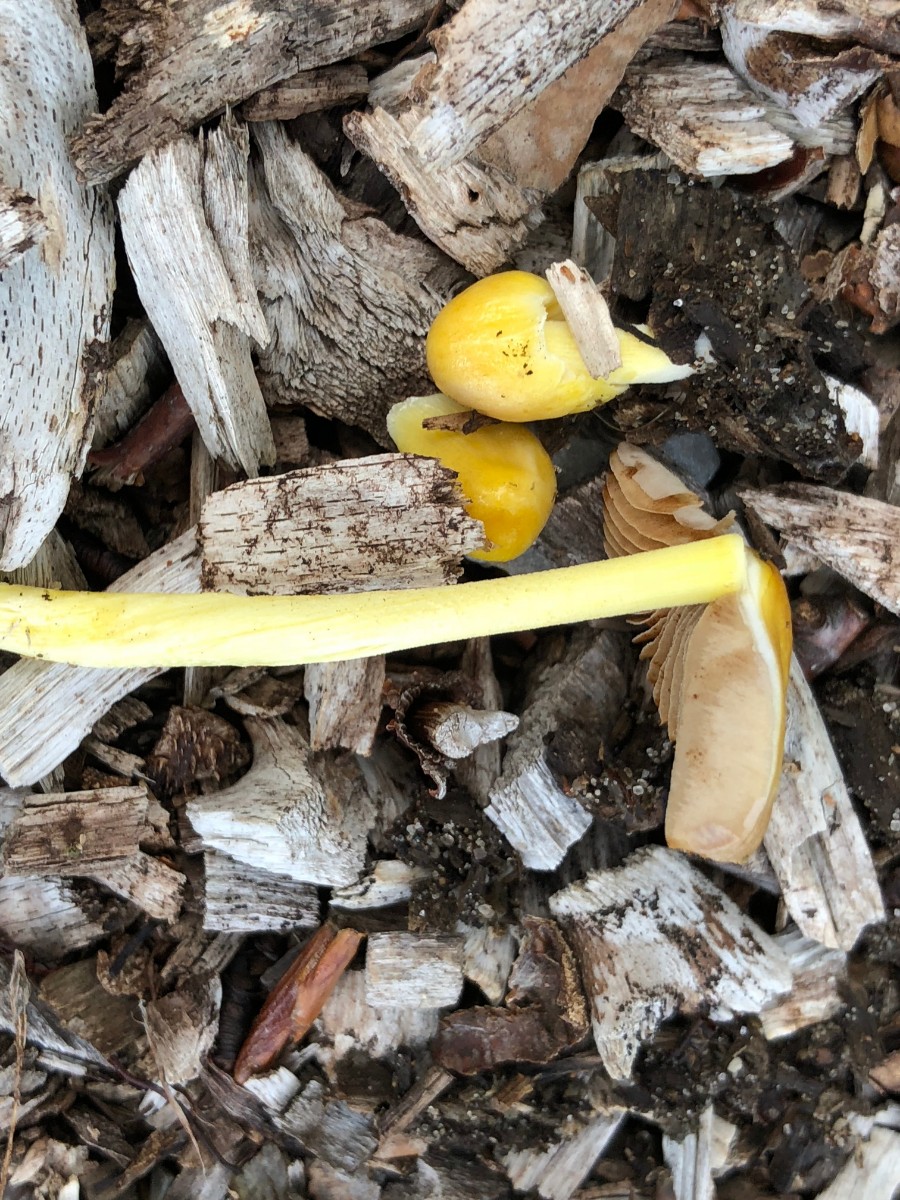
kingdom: Fungi
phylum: Basidiomycota
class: Agaricomycetes
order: Agaricales
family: Bolbitiaceae
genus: Bolbitius
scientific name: Bolbitius titubans
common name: almindelig gulhat
